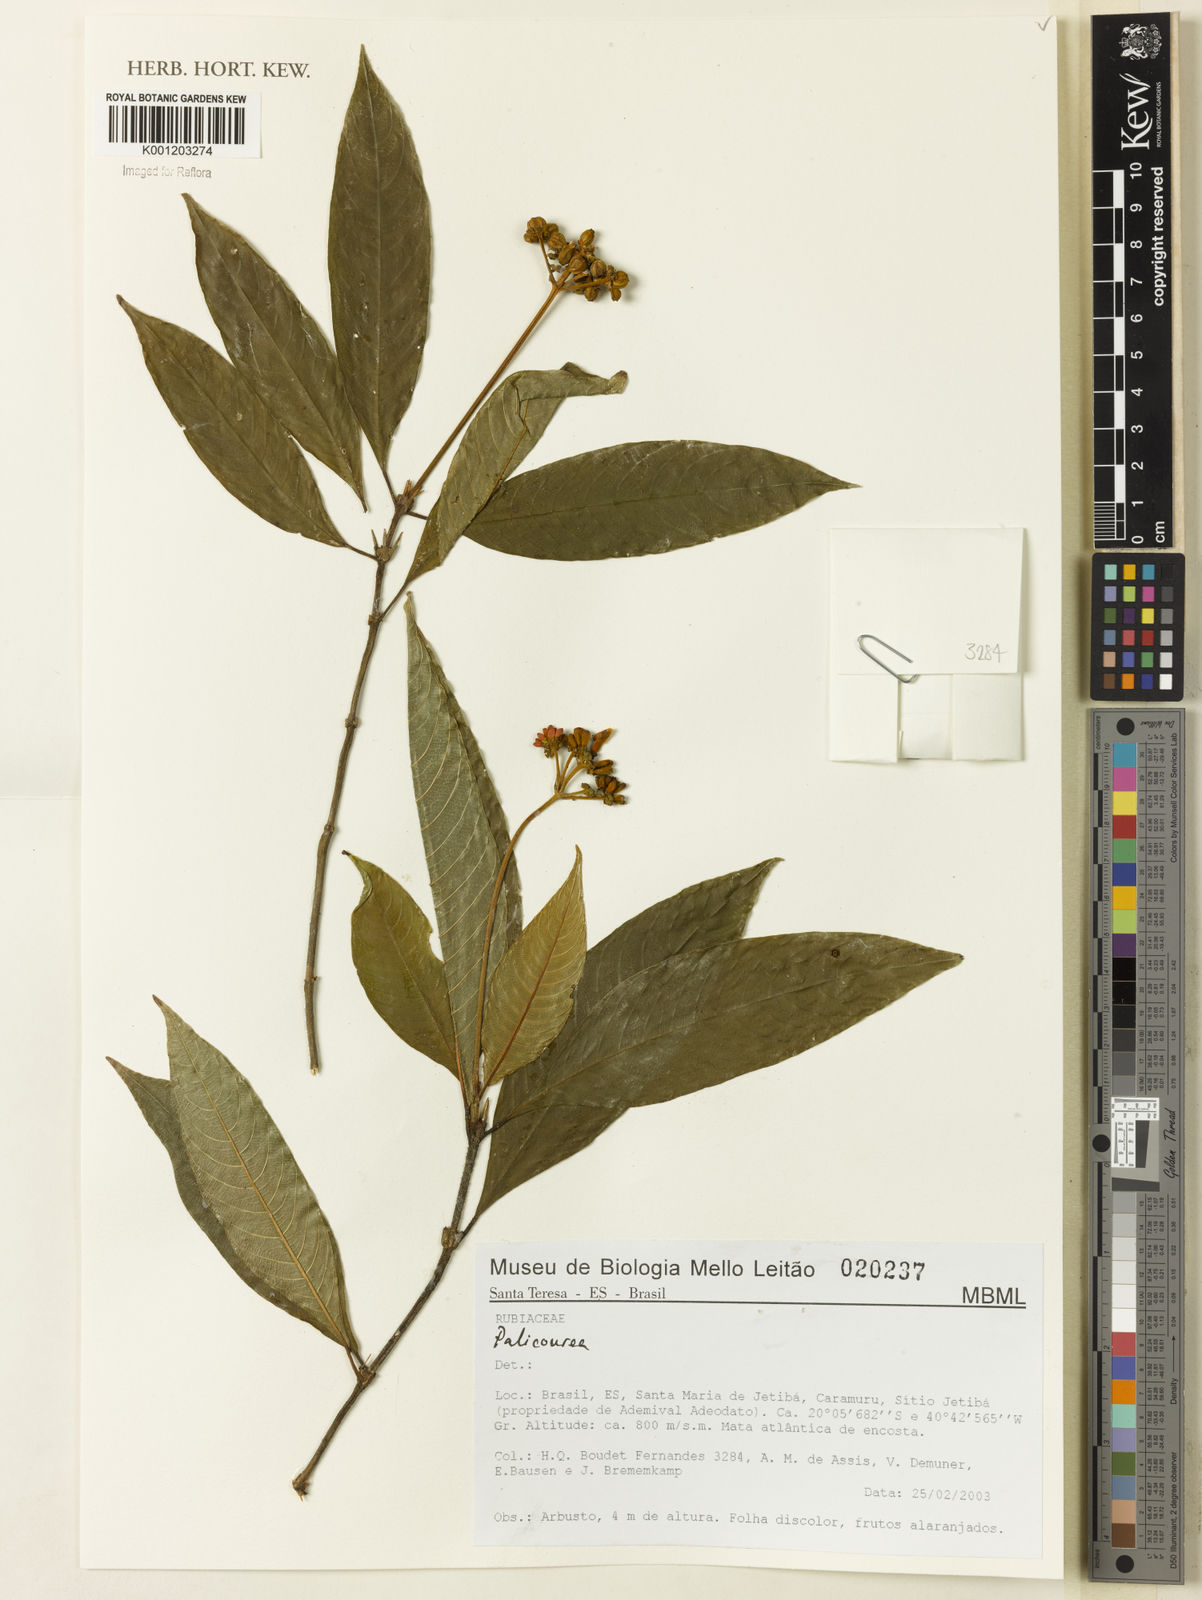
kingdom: Plantae
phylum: Tracheophyta
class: Magnoliopsida
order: Gentianales
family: Rubiaceae
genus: Palicourea
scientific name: Palicourea
